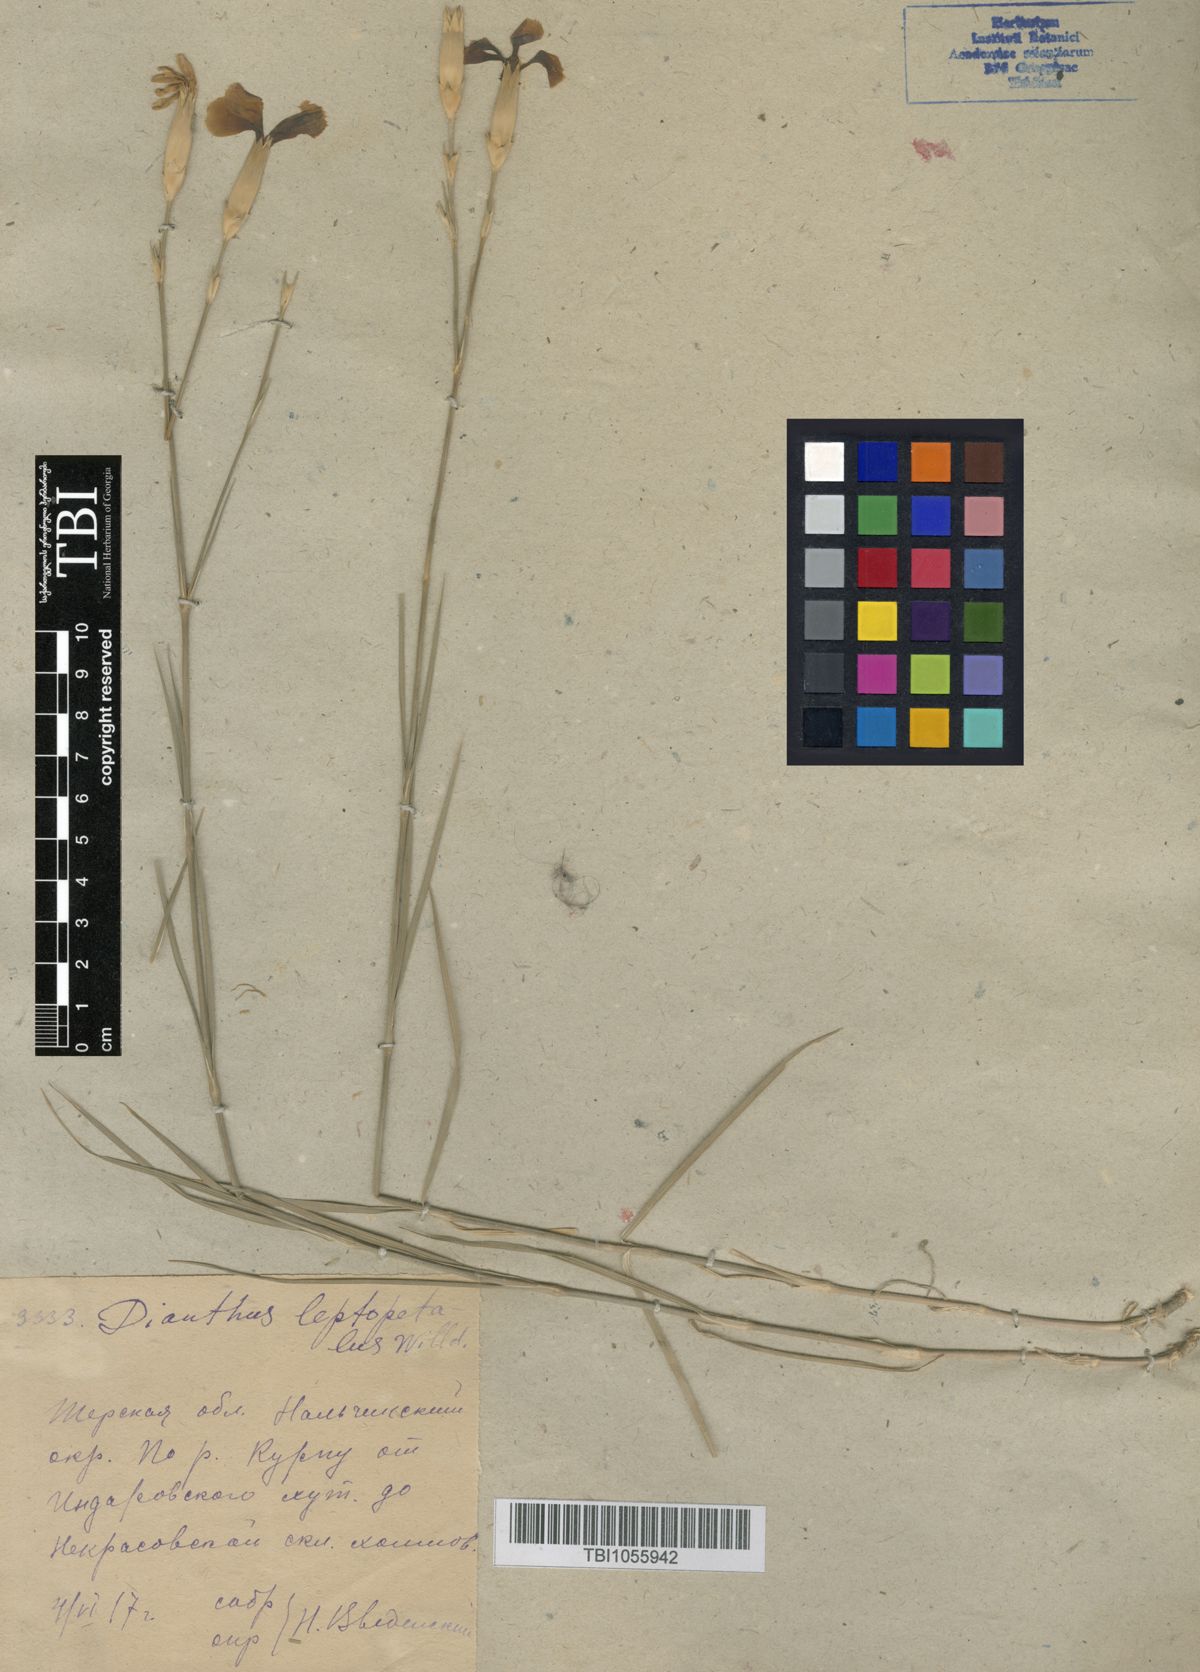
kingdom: Plantae
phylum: Tracheophyta
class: Magnoliopsida
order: Caryophyllales
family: Caryophyllaceae
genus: Dianthus
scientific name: Dianthus leptopetalus
